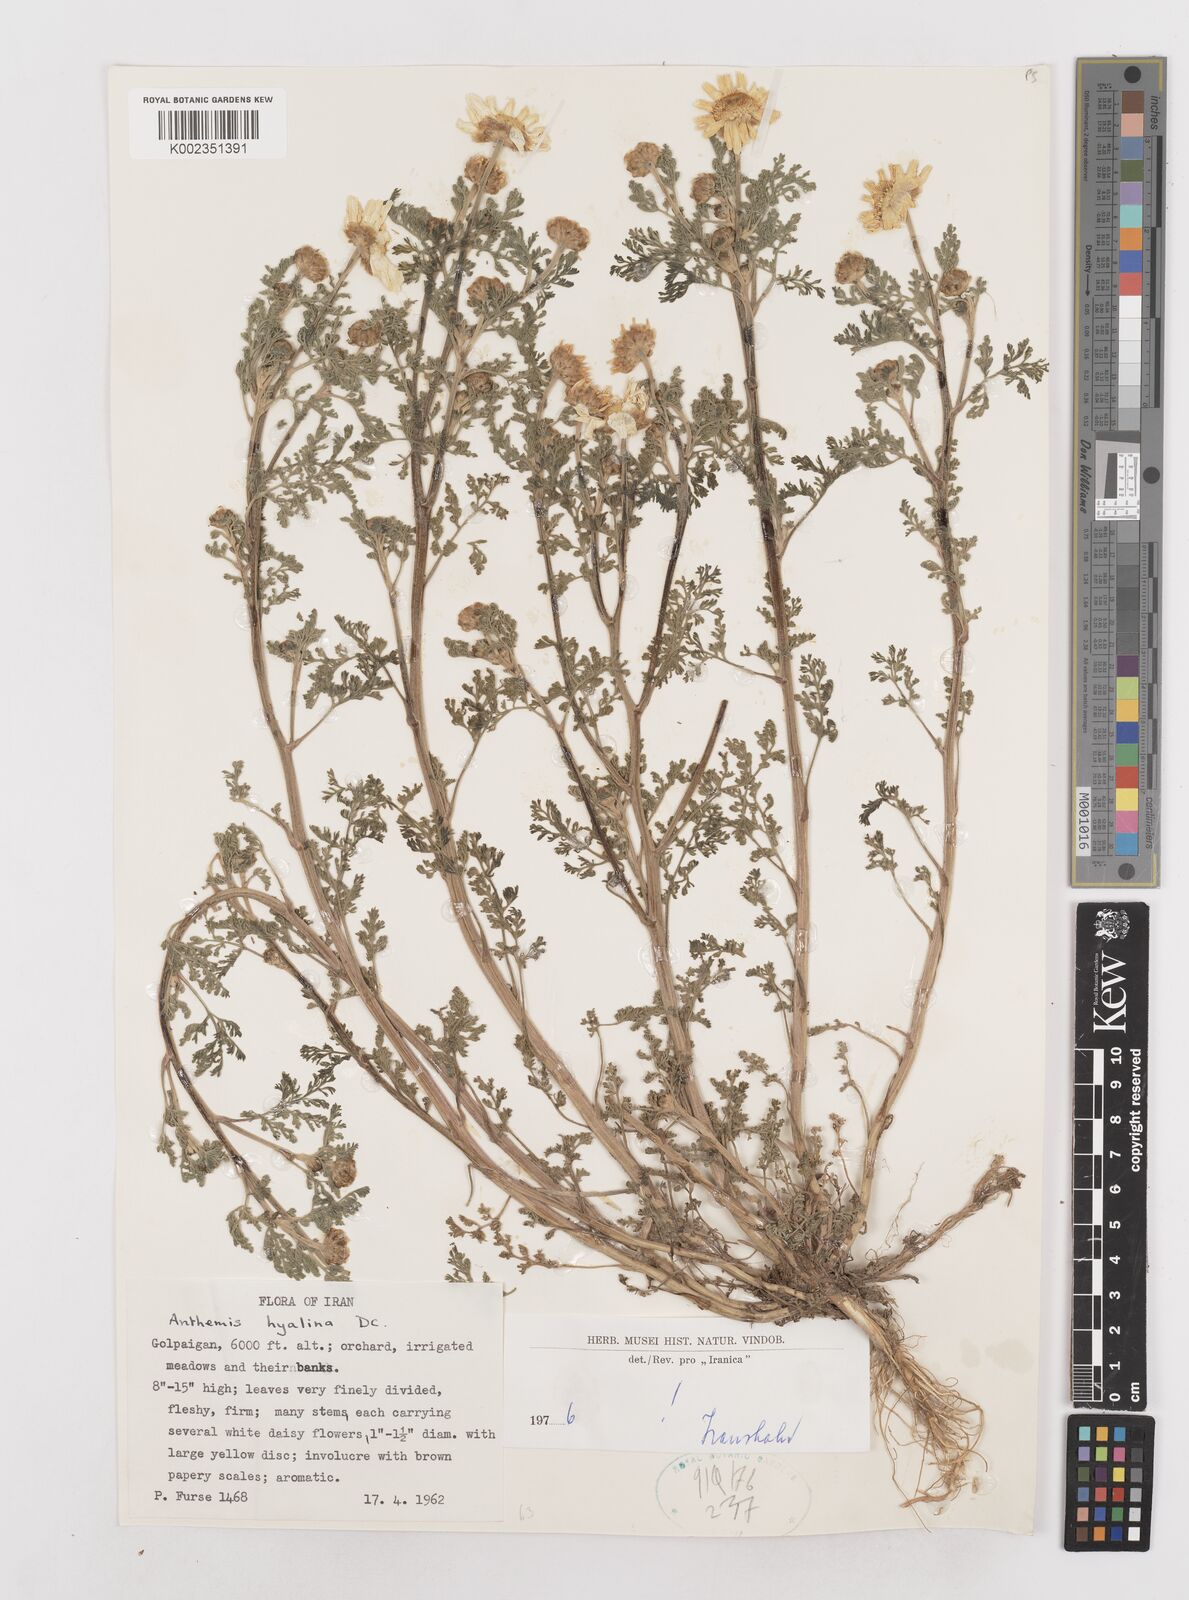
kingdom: Plantae
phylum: Tracheophyta
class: Magnoliopsida
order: Asterales
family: Asteraceae
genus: Anthemis
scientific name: Anthemis hyalina
